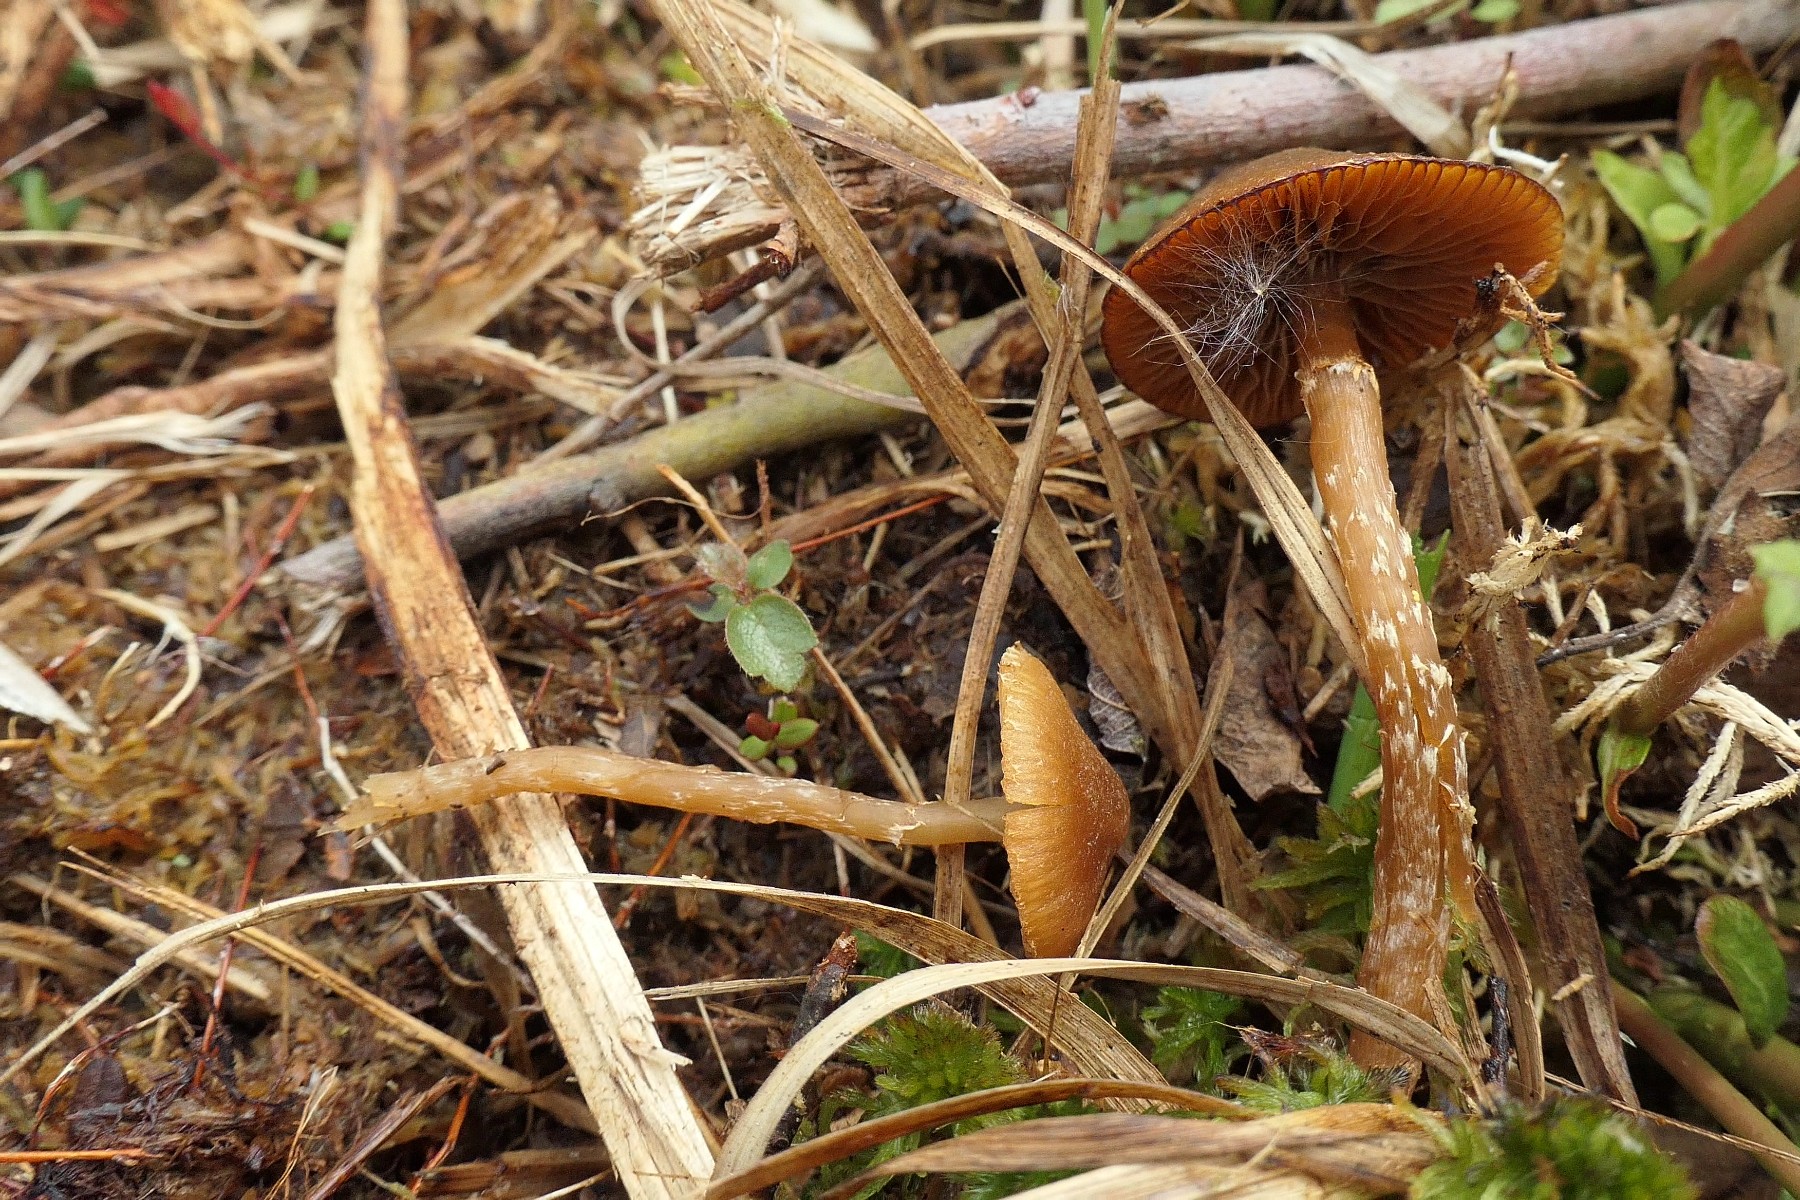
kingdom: Fungi
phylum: Basidiomycota
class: Agaricomycetes
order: Agaricales
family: Hymenogastraceae
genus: Galerina
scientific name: Galerina paludosa
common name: mose-hjelmhat
